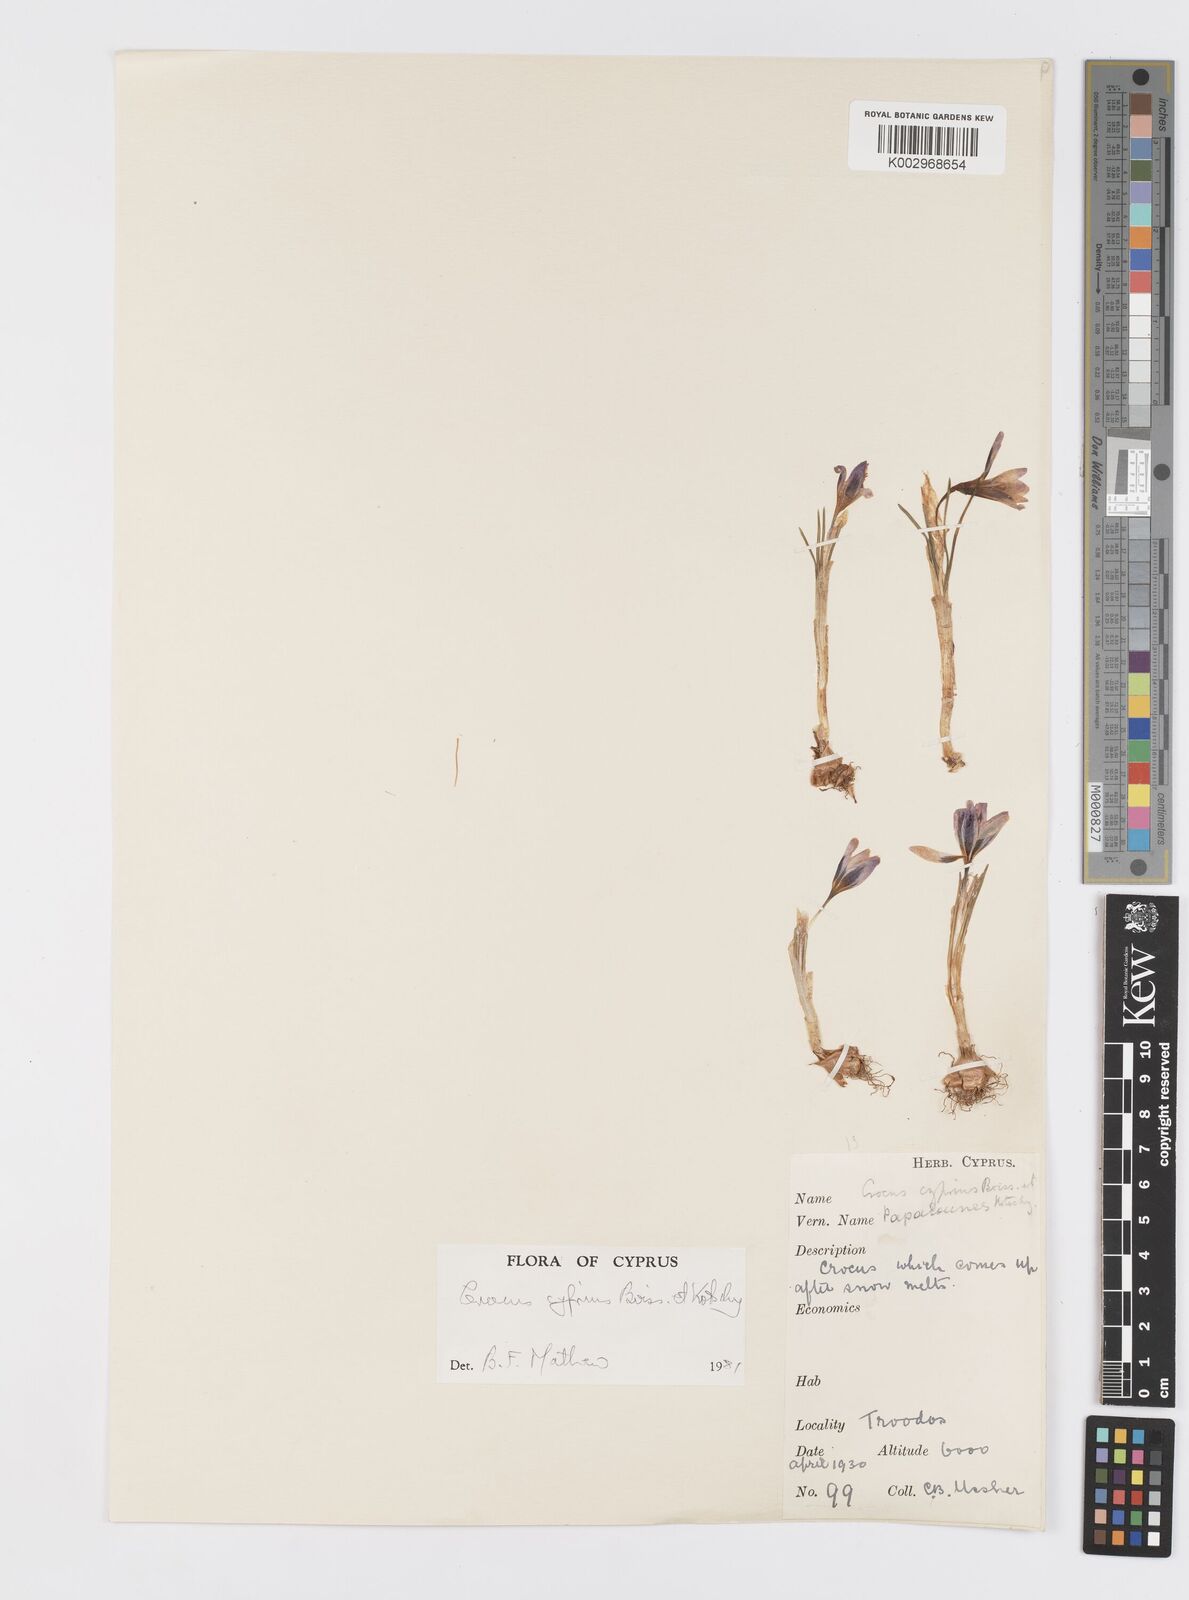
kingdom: Plantae
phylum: Tracheophyta
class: Liliopsida
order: Asparagales
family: Iridaceae
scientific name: Iridaceae
